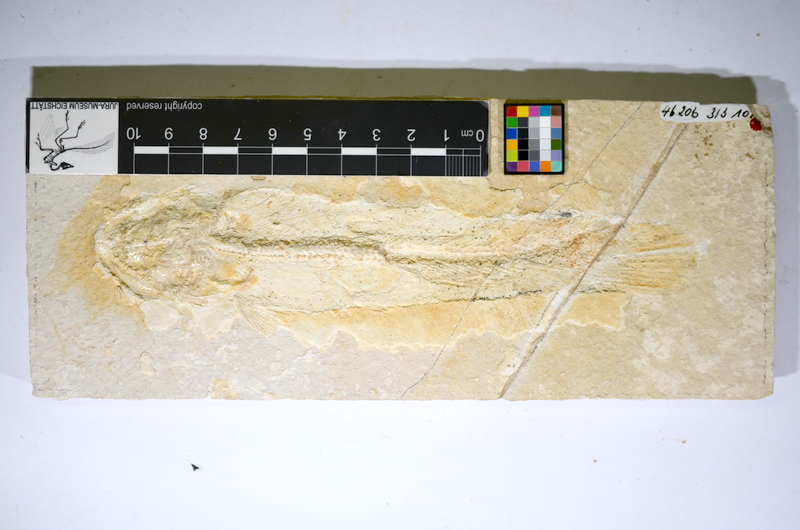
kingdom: Animalia
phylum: Chordata
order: Amiiformes
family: Amiidae
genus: Solnhofenamia
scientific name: Solnhofenamia elongata
